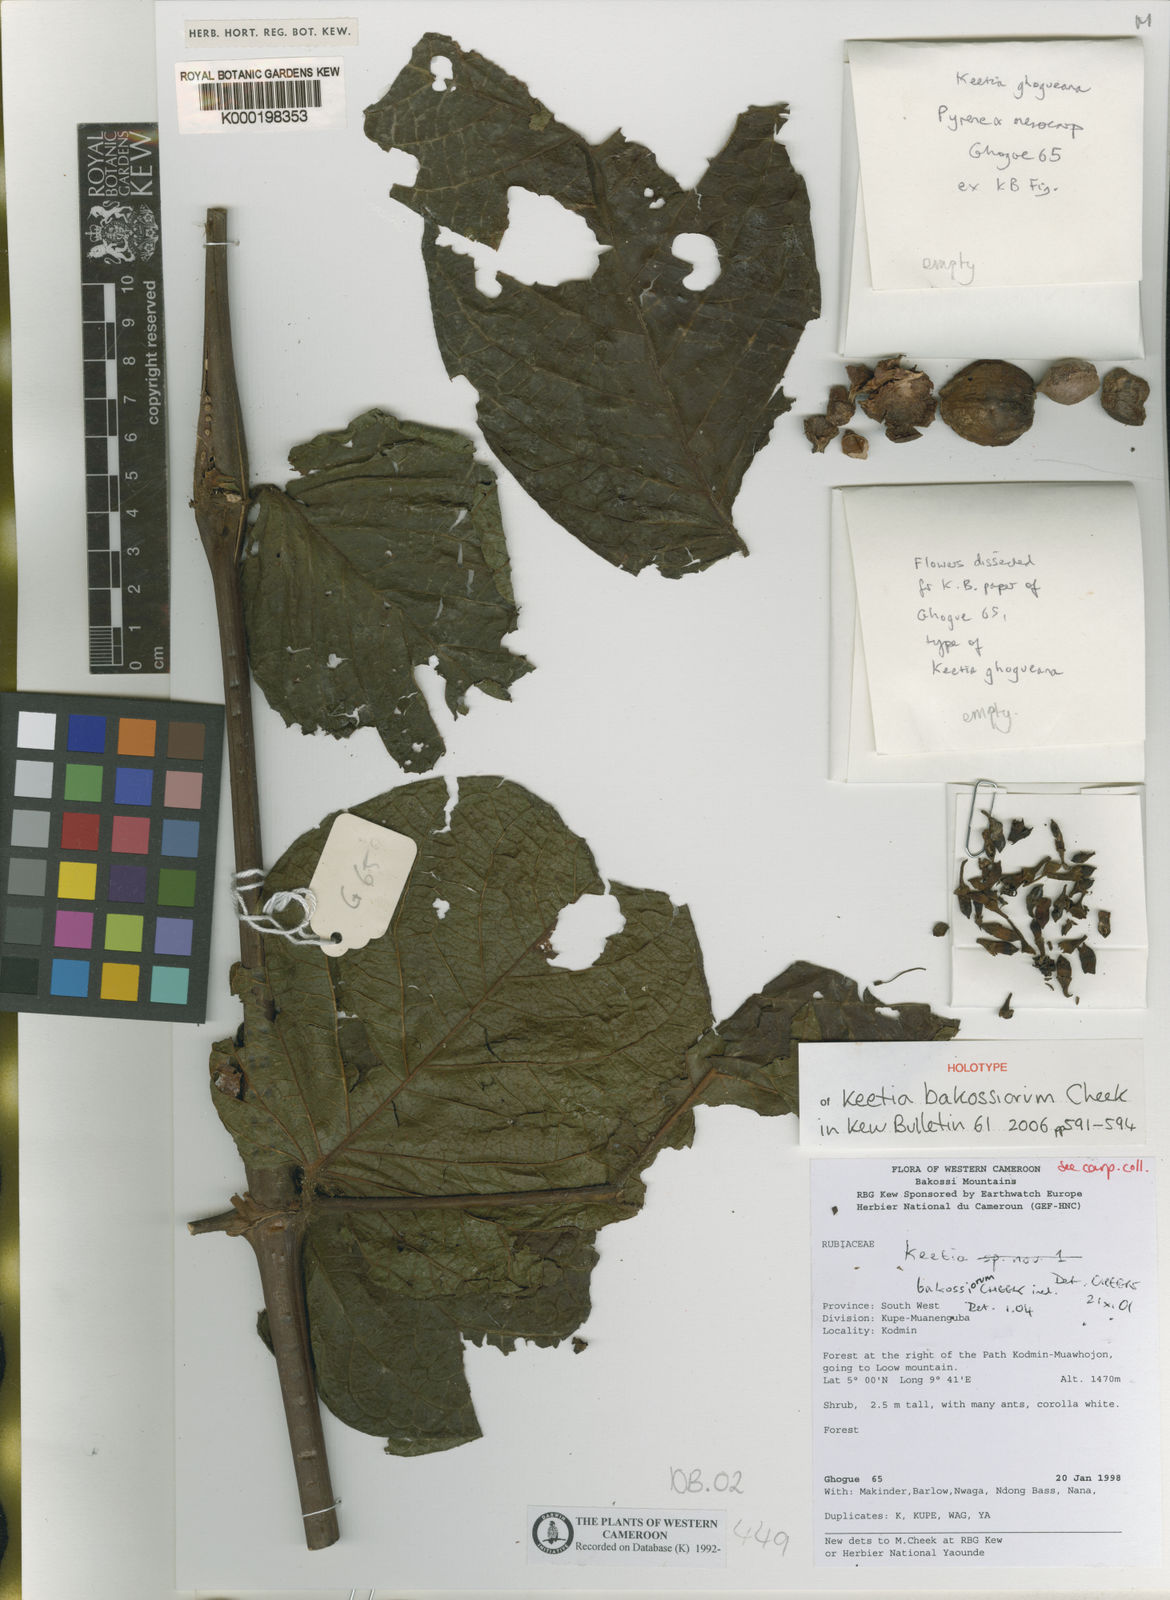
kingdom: Plantae
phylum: Tracheophyta
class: Magnoliopsida
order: Gentianales
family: Rubiaceae
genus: Keetia
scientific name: Keetia bakossiorum
